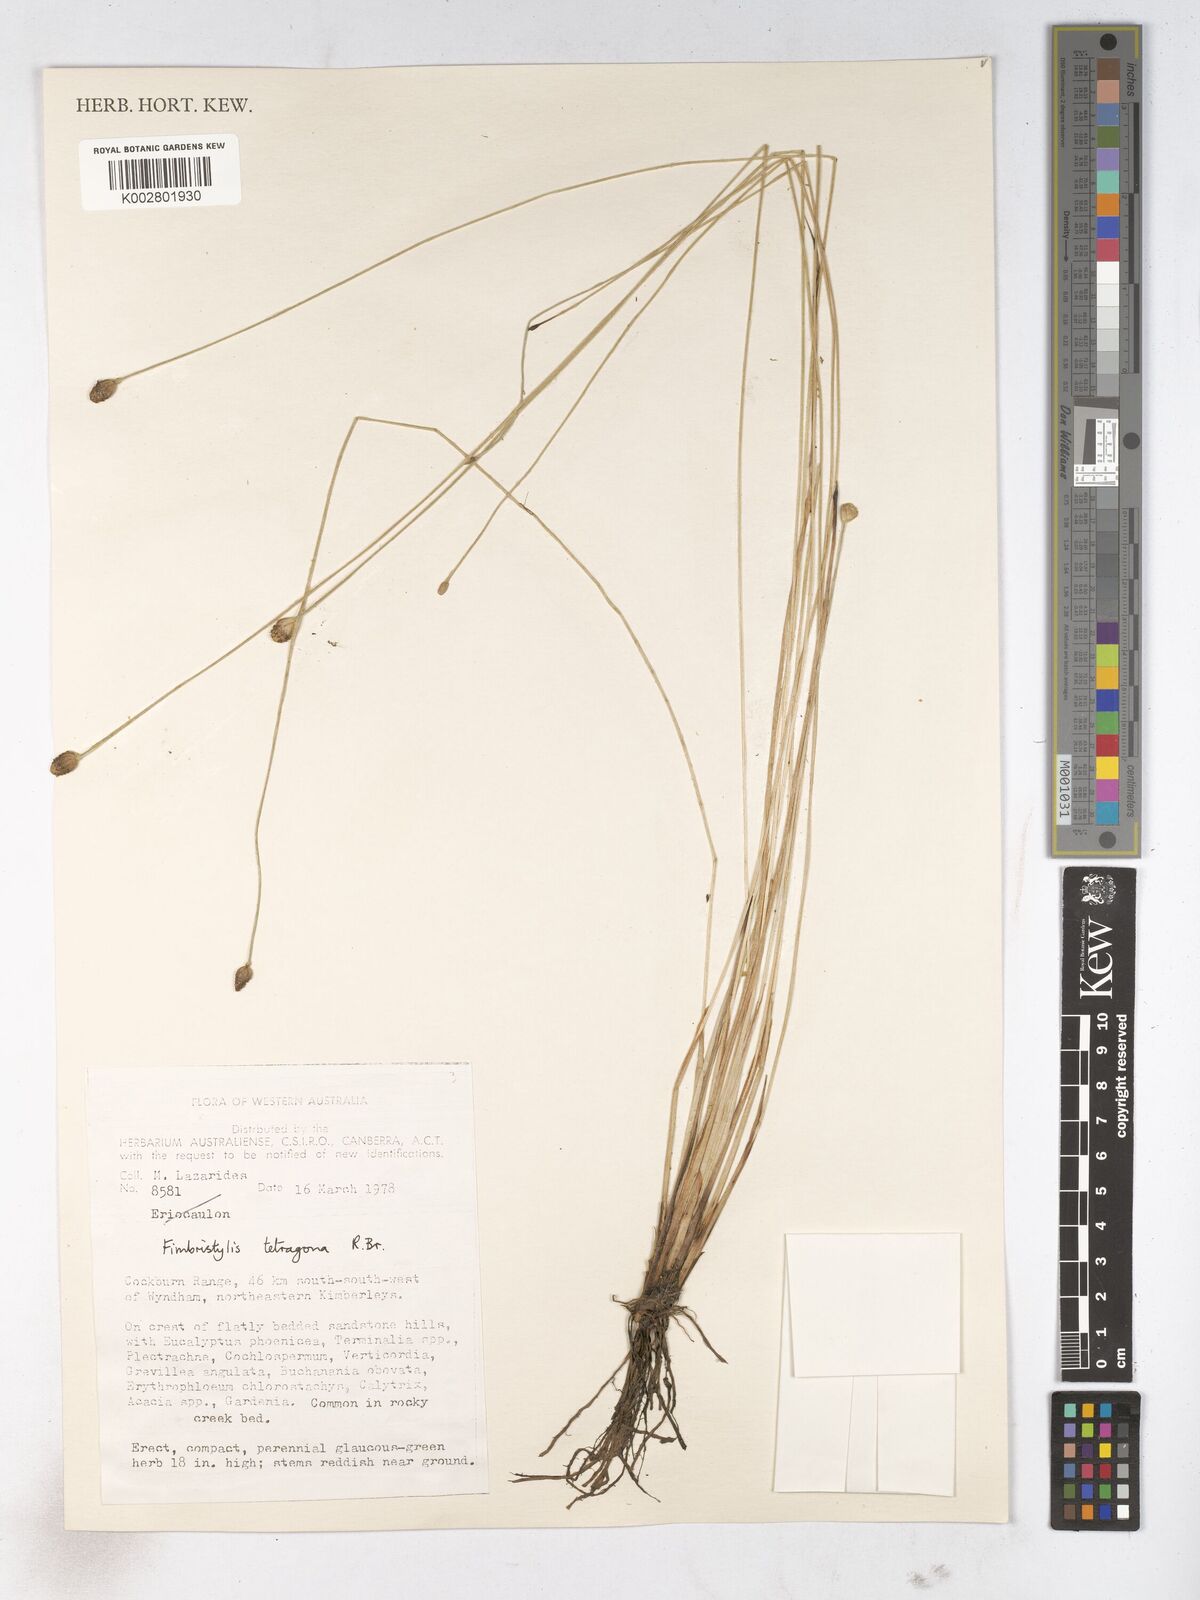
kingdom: Plantae
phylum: Tracheophyta
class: Liliopsida
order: Poales
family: Cyperaceae
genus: Fimbristylis
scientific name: Fimbristylis tetragona
